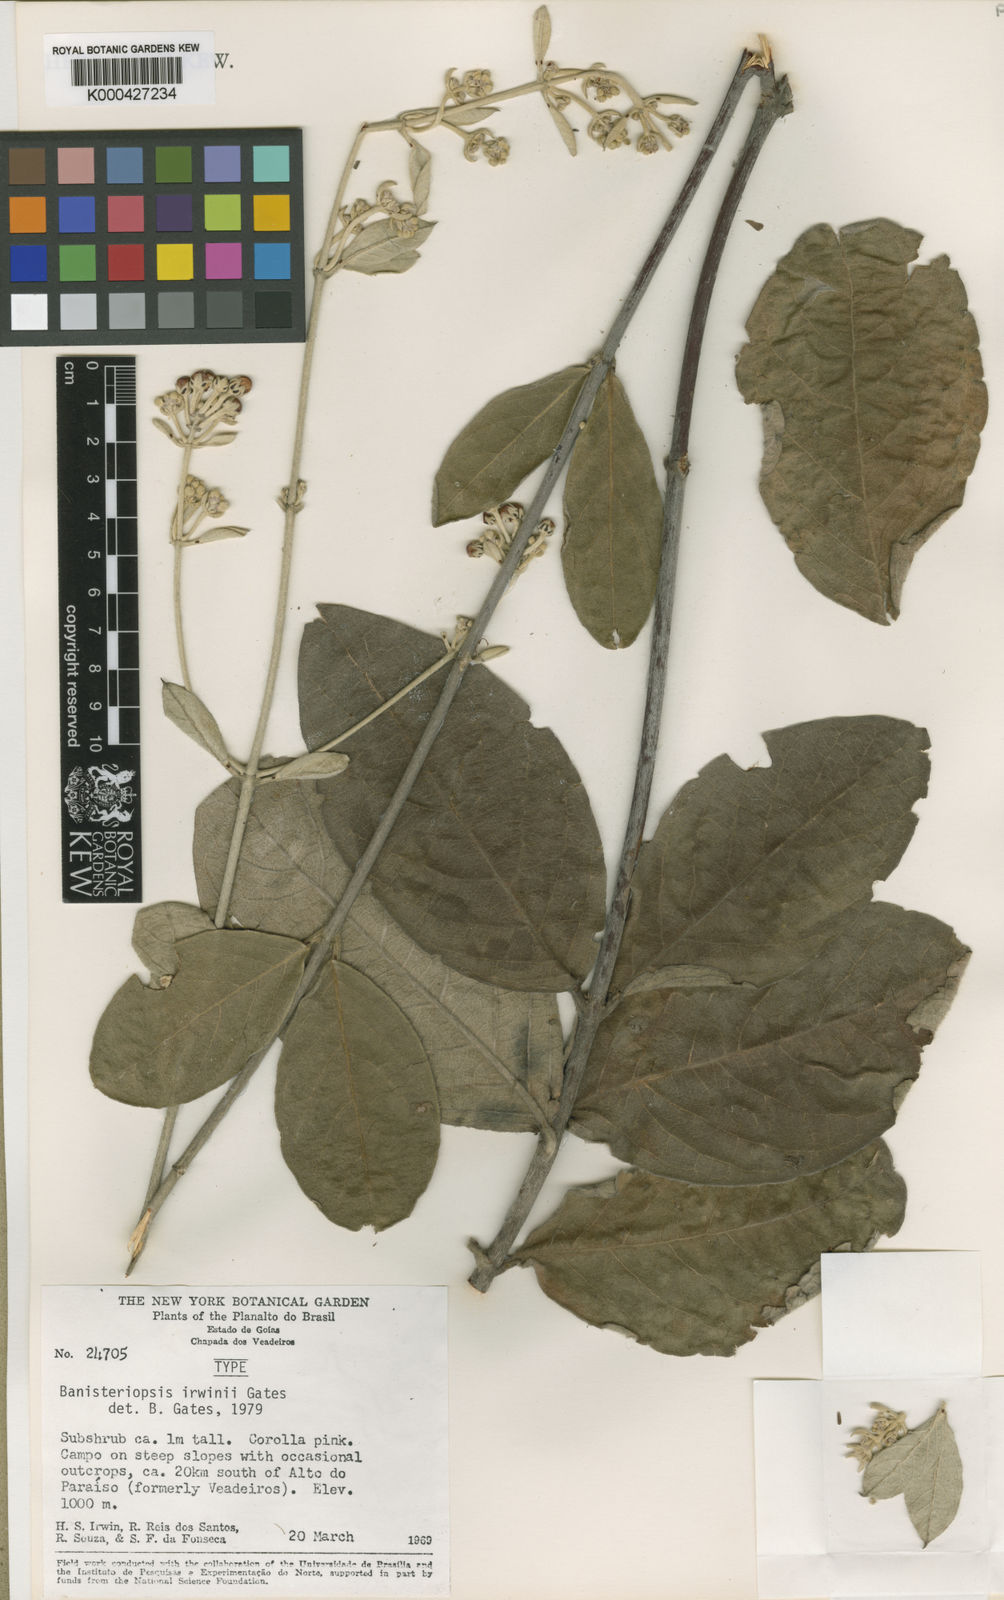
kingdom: Plantae
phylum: Tracheophyta
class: Magnoliopsida
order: Malpighiales
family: Malpighiaceae
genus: Banisteriopsis
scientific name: Banisteriopsis irwinii
